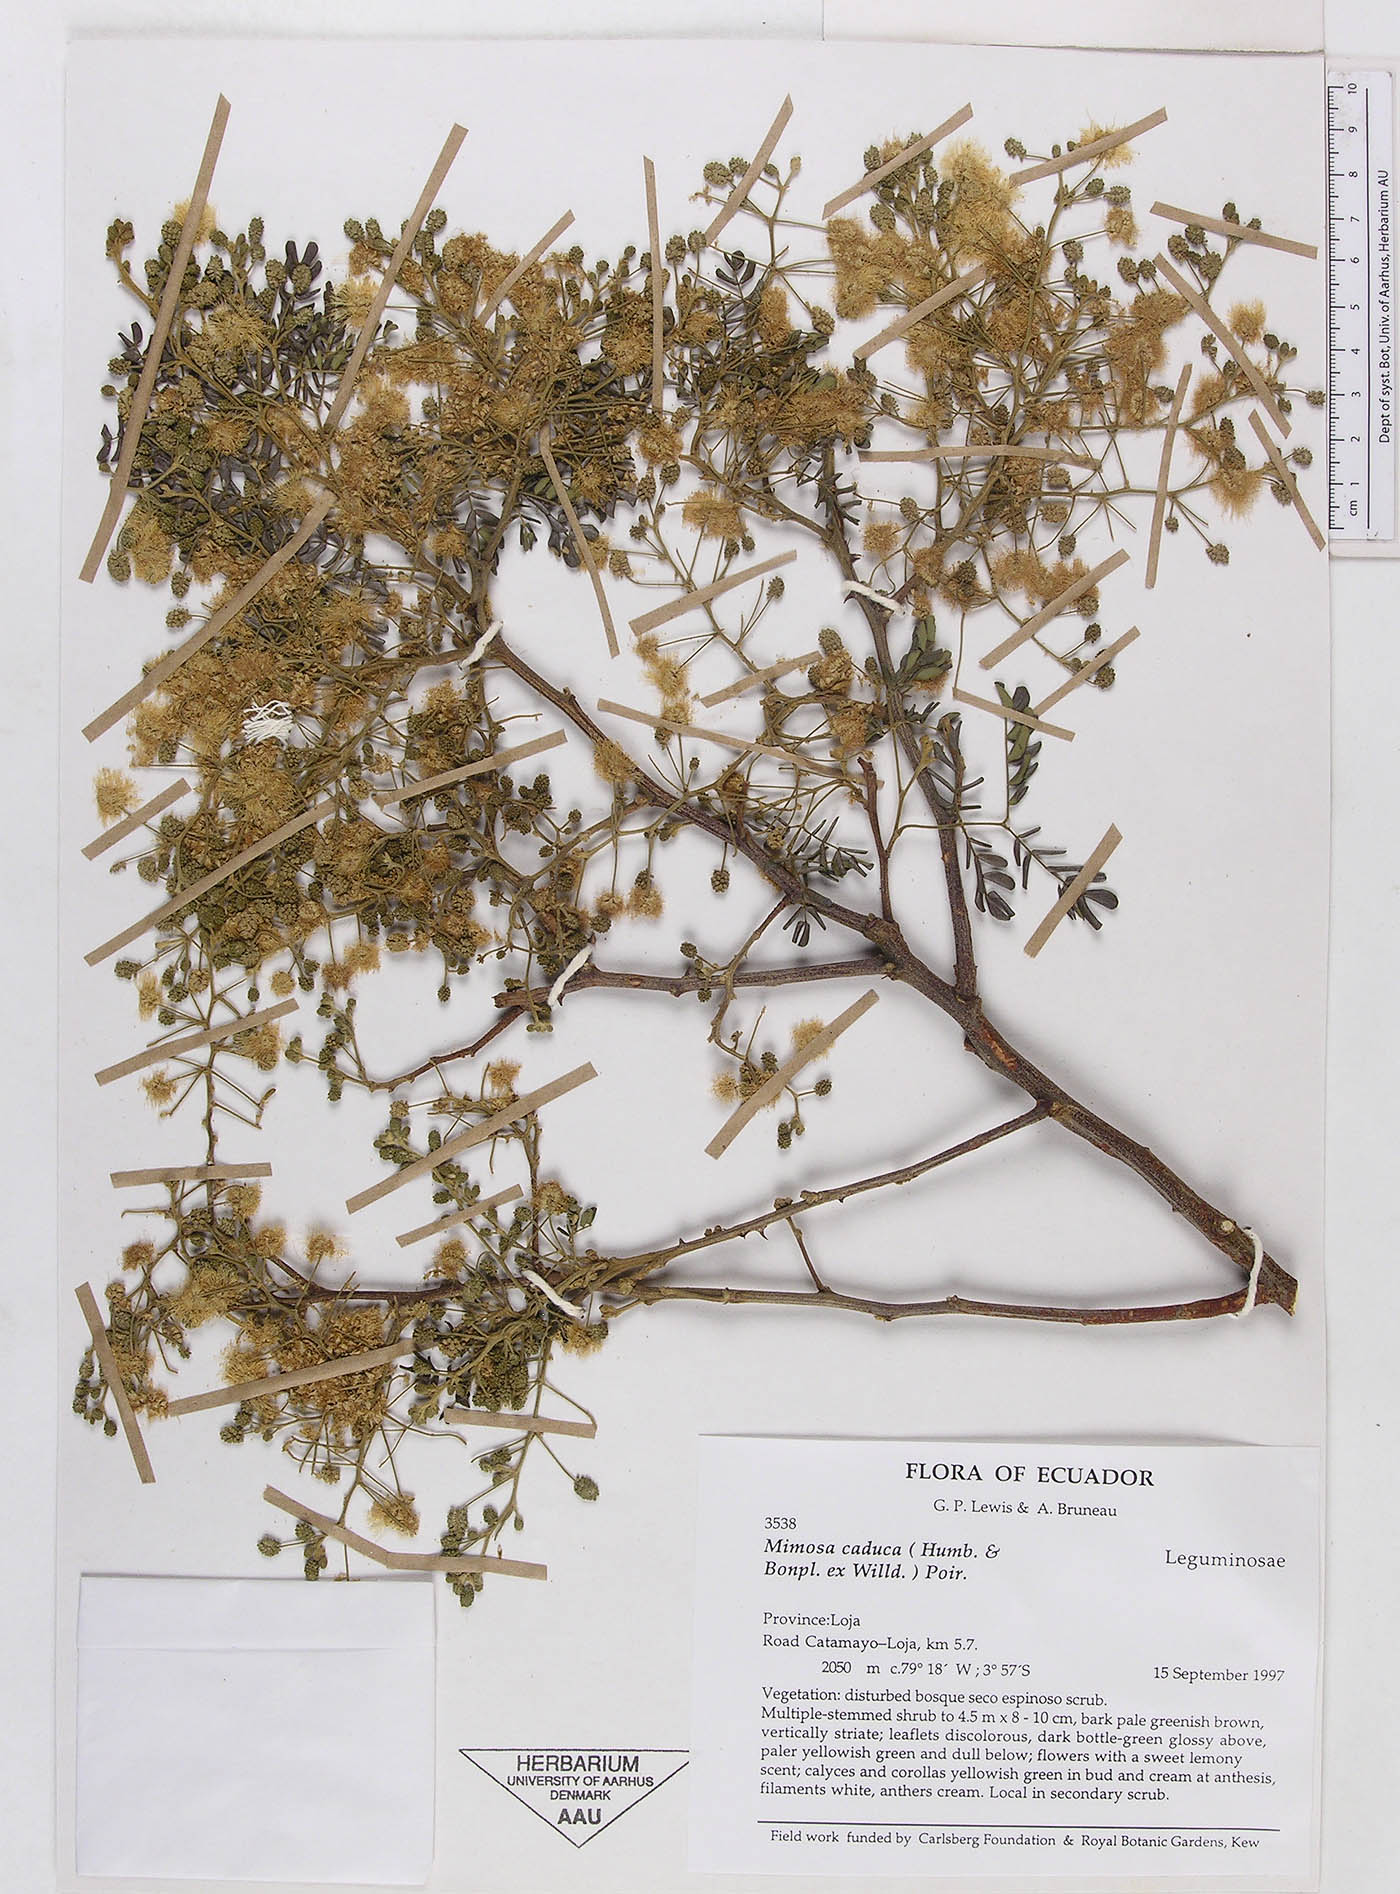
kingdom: Plantae
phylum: Tracheophyta
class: Magnoliopsida
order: Fabales
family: Fabaceae
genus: Mimosa
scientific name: Mimosa caduca
